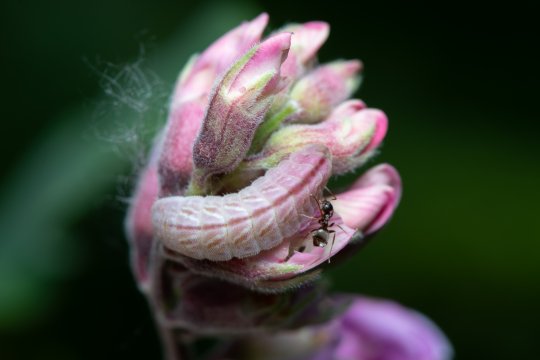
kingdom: Animalia
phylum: Arthropoda
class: Insecta
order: Lepidoptera
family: Lycaenidae
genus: Glaucopsyche
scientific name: Glaucopsyche lygdamus
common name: Silvery Blue
